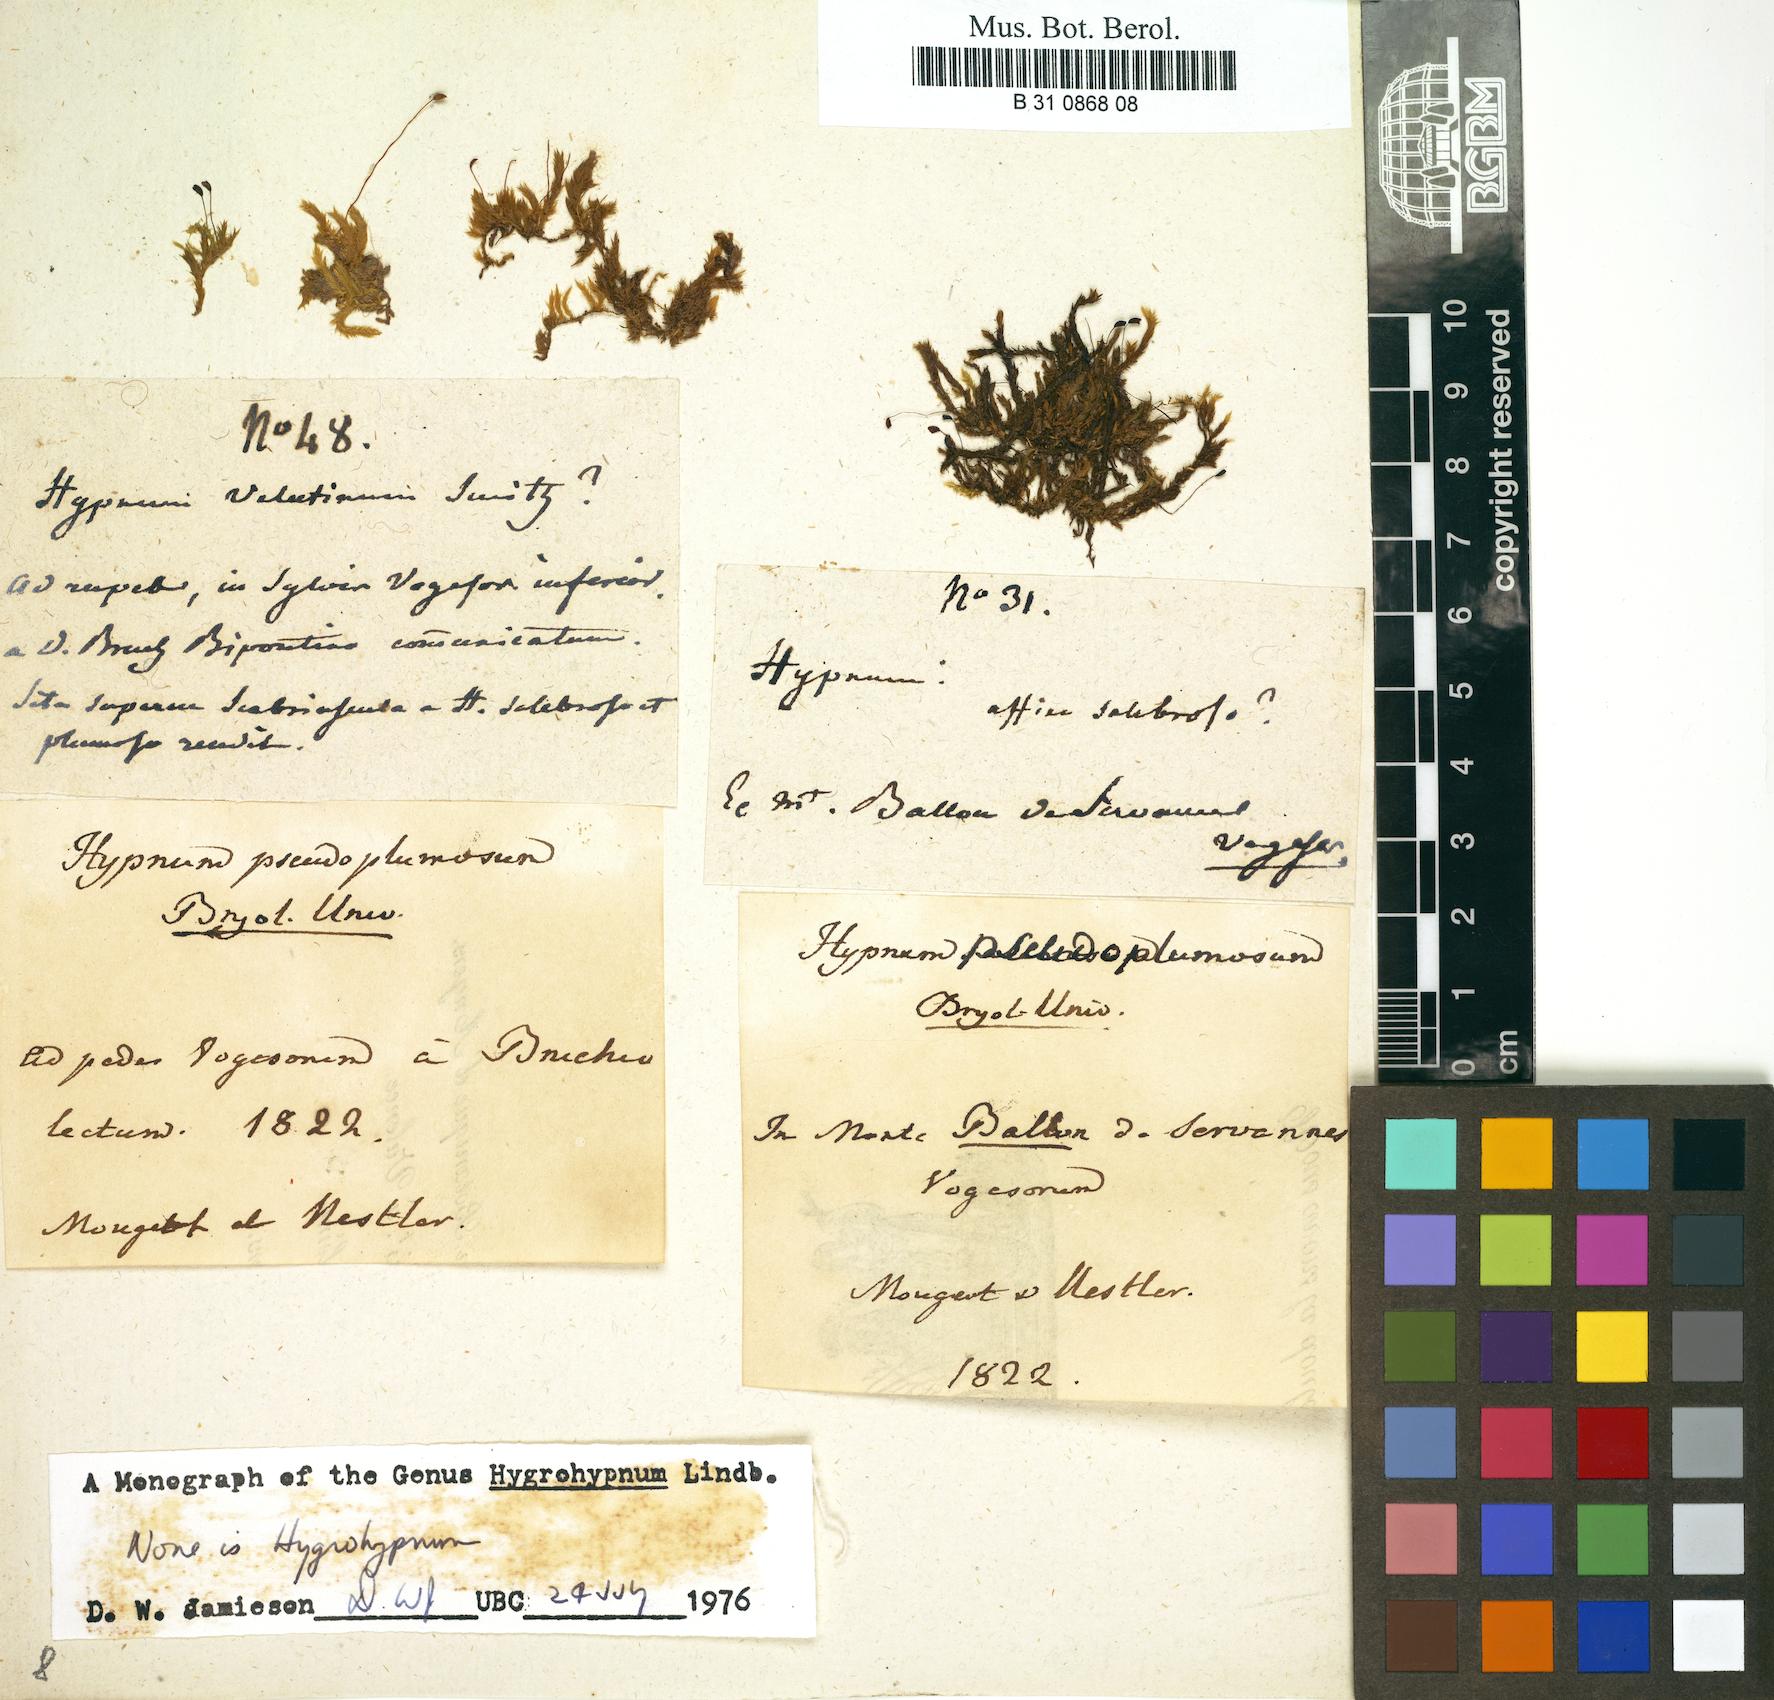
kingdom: Plantae
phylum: Bryophyta
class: Bryopsida
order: Hypnales
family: Brachytheciaceae
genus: Sciuro-hypnum
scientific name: Sciuro-hypnum plumosum
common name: Rusty feather-moss
